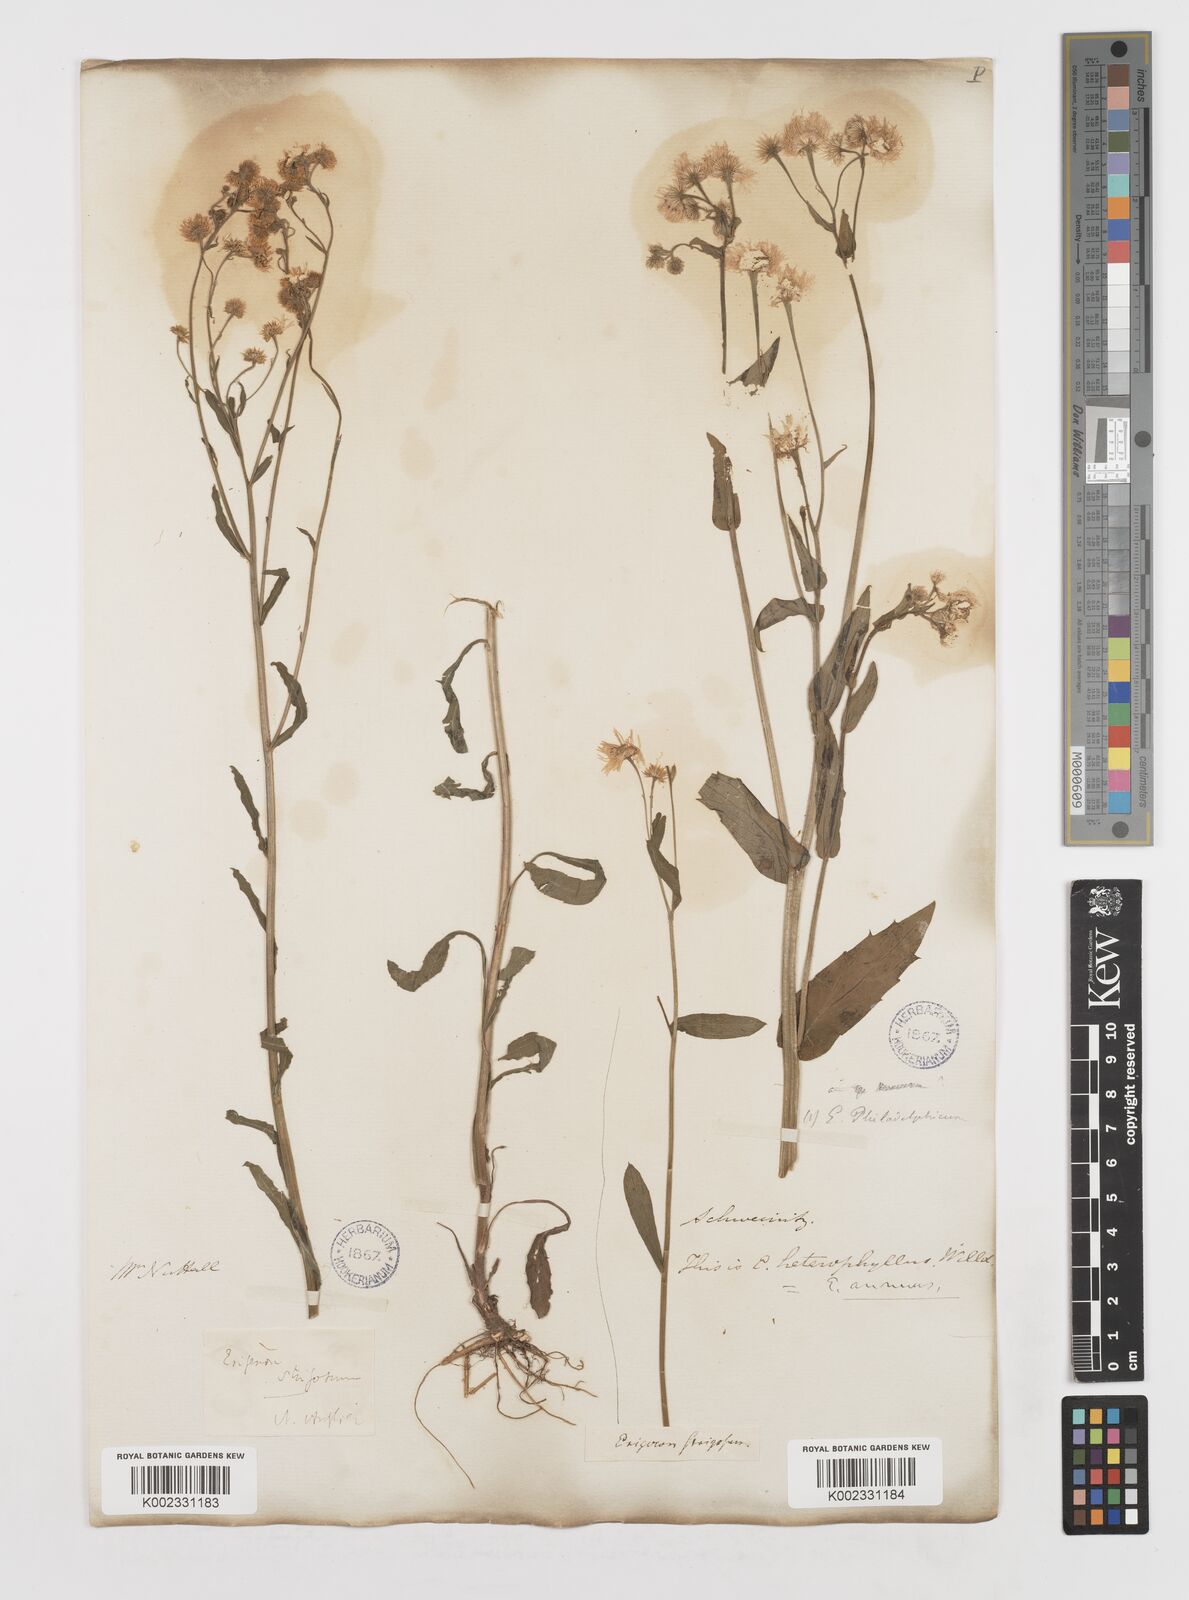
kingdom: Plantae
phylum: Tracheophyta
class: Magnoliopsida
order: Asterales
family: Asteraceae
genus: Erigeron
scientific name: Erigeron
